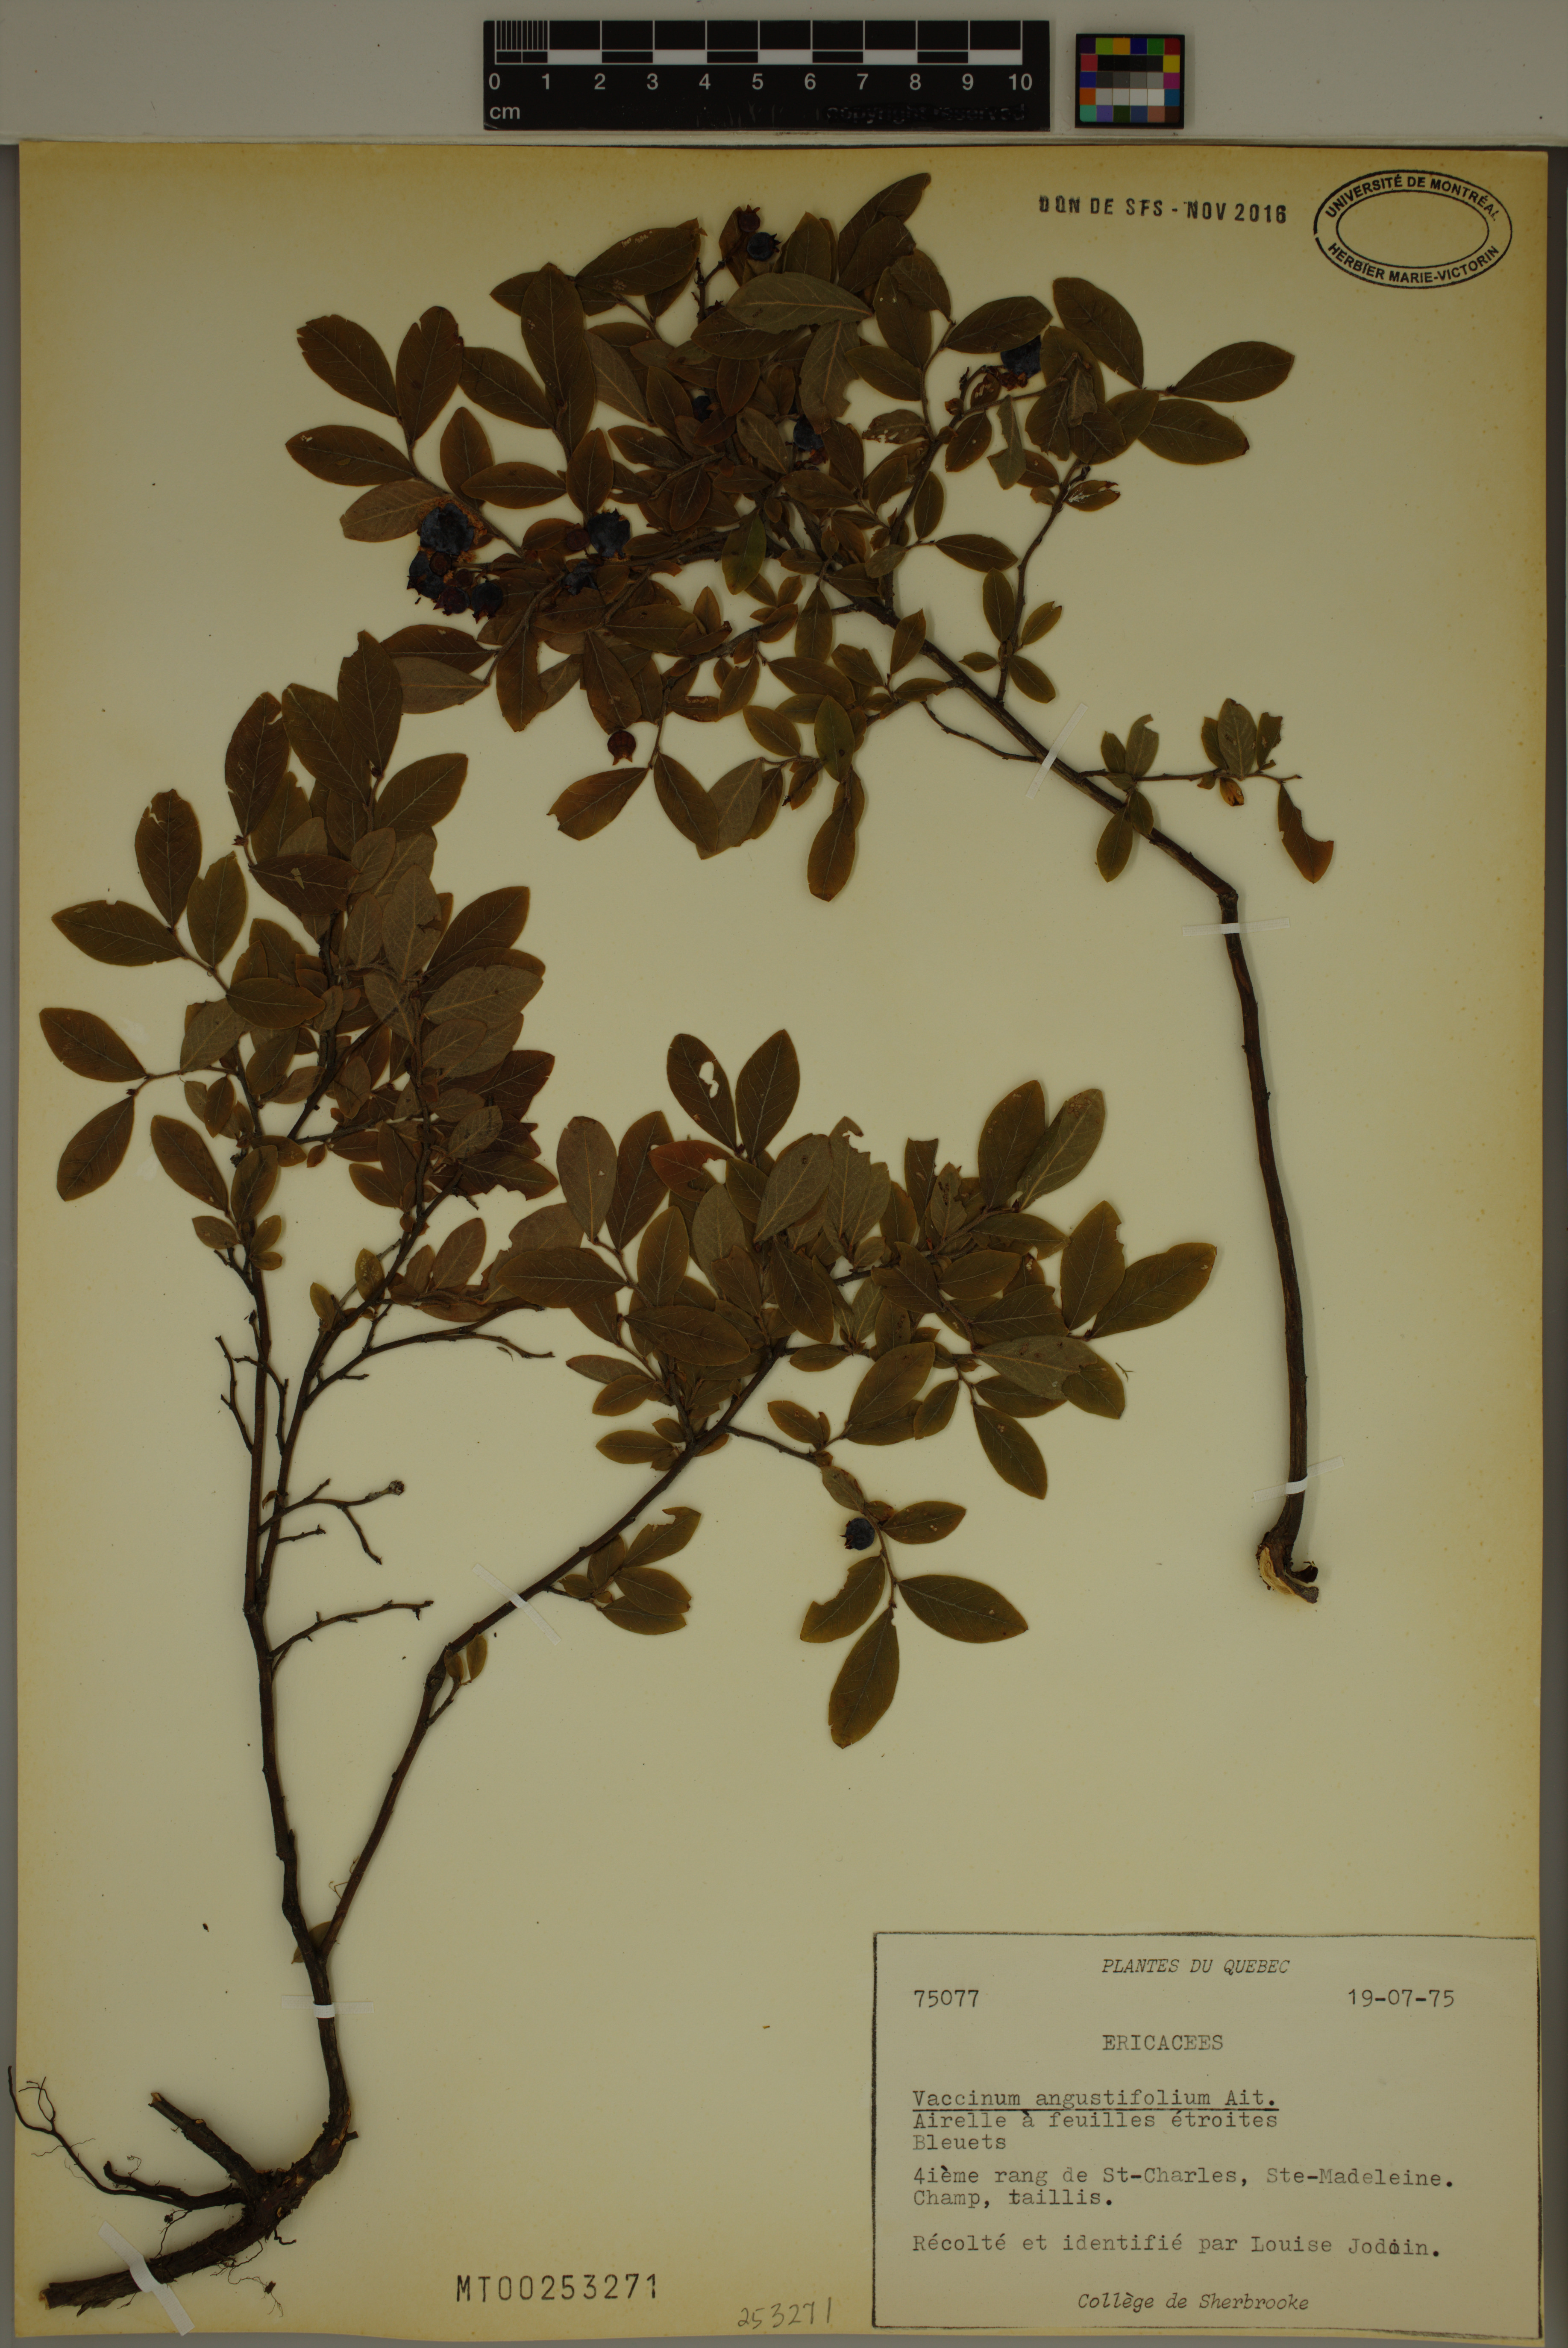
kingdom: Plantae
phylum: Tracheophyta
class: Magnoliopsida
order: Ericales
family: Ericaceae
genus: Vaccinium
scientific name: Vaccinium angustifolium
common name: Early lowbush blueberry
